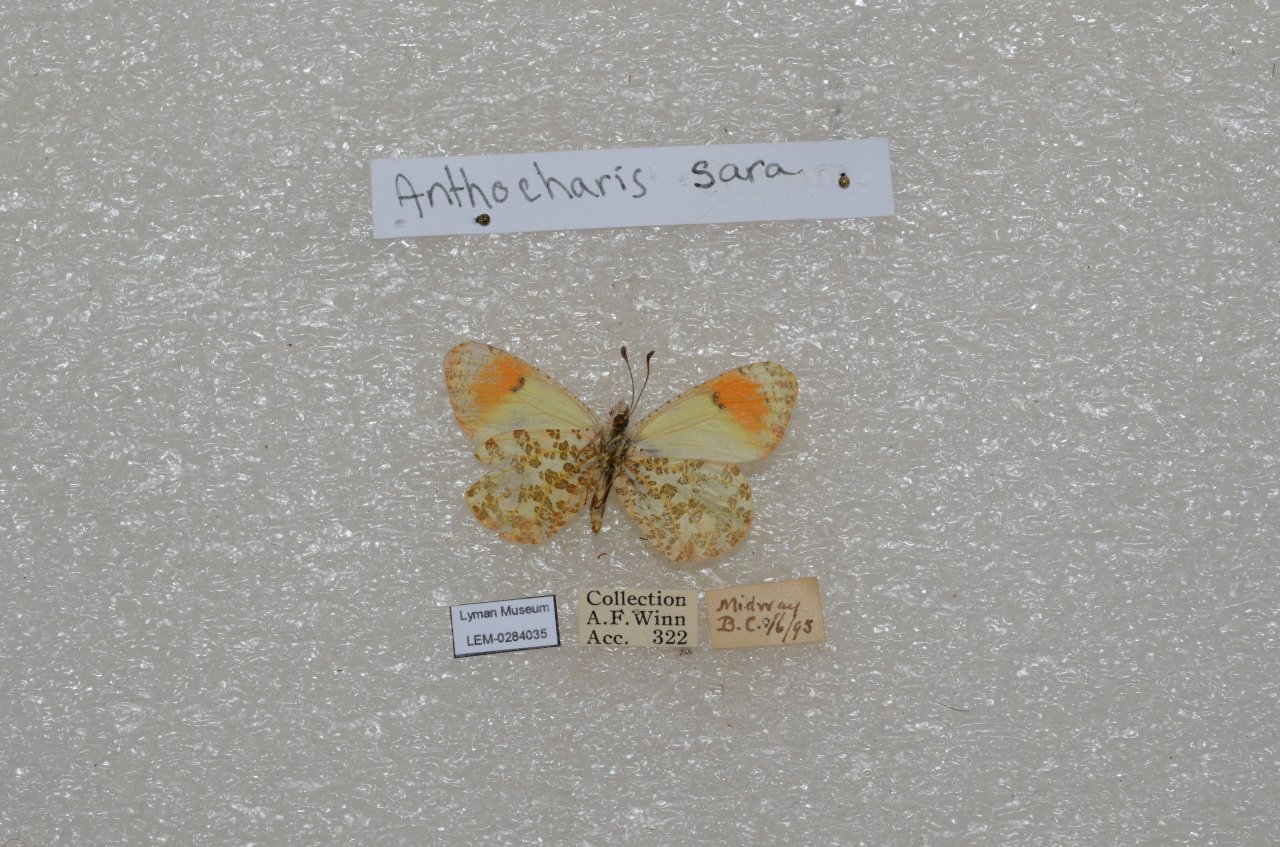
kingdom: Animalia
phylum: Arthropoda
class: Insecta
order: Lepidoptera
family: Pieridae
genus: Anthocharis
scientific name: Anthocharis sara
